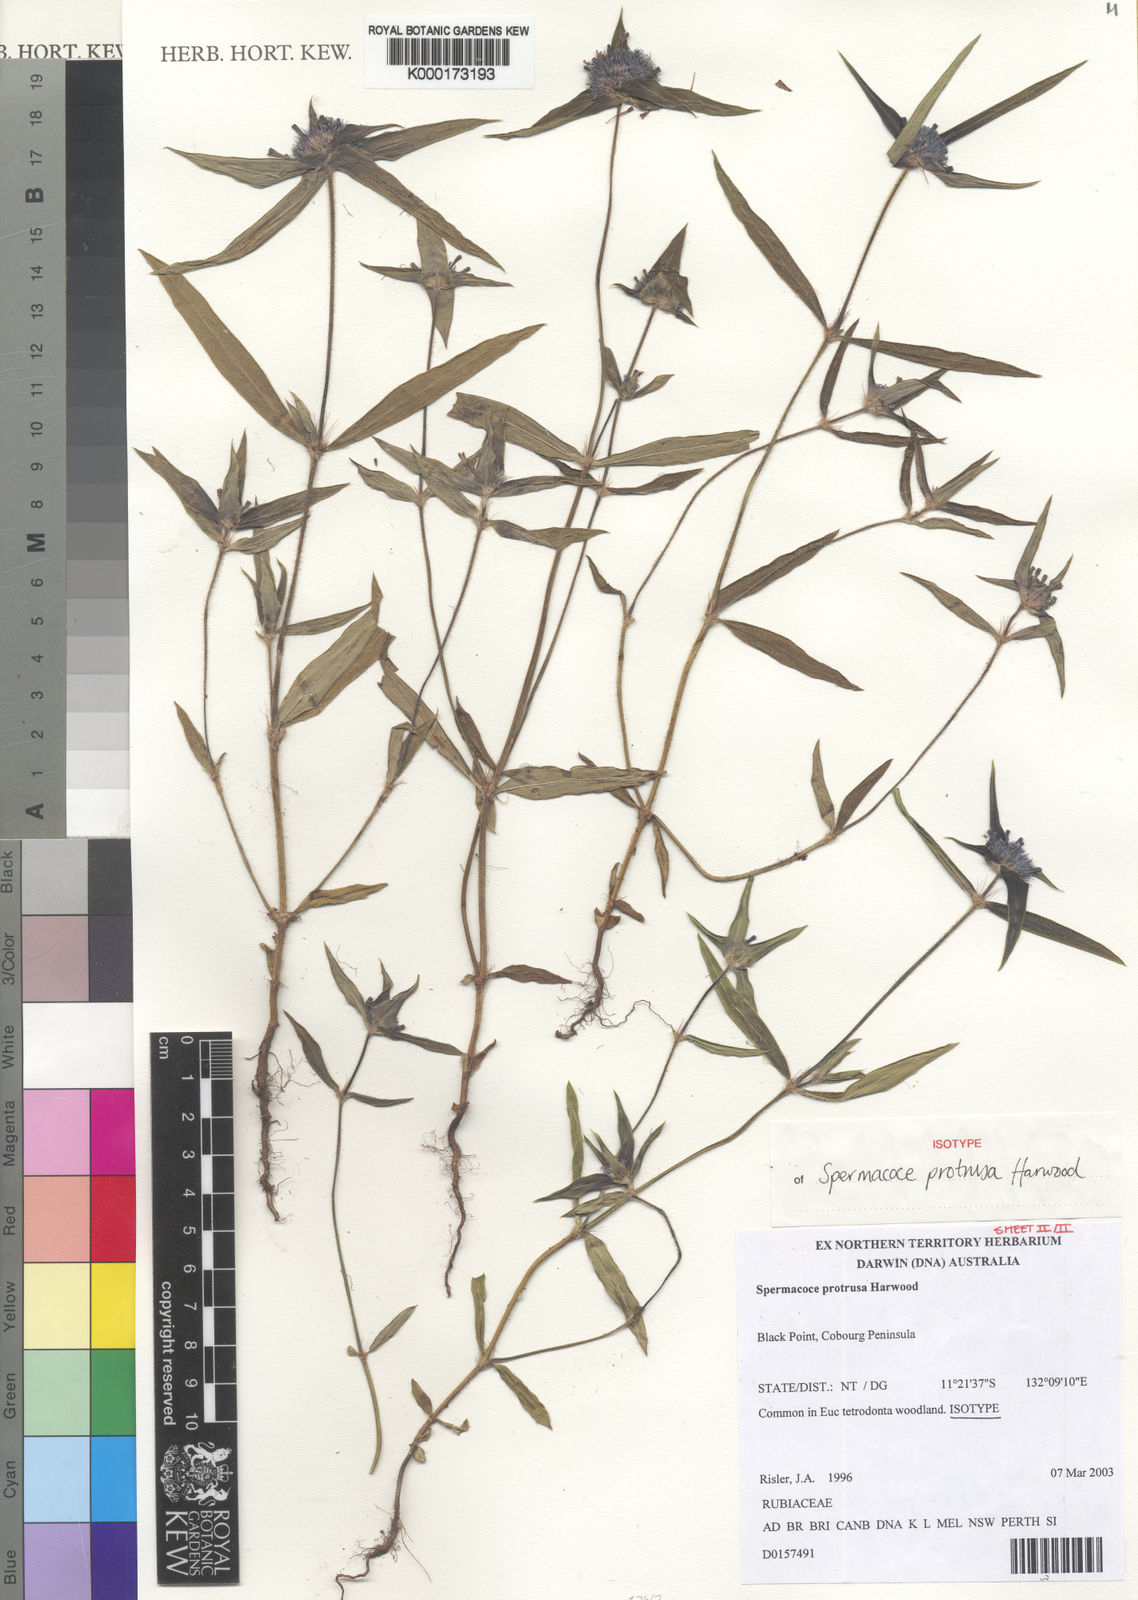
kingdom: Plantae
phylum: Tracheophyta
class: Magnoliopsida
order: Gentianales
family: Rubiaceae
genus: Spermacoce
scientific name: Spermacoce protrusa
